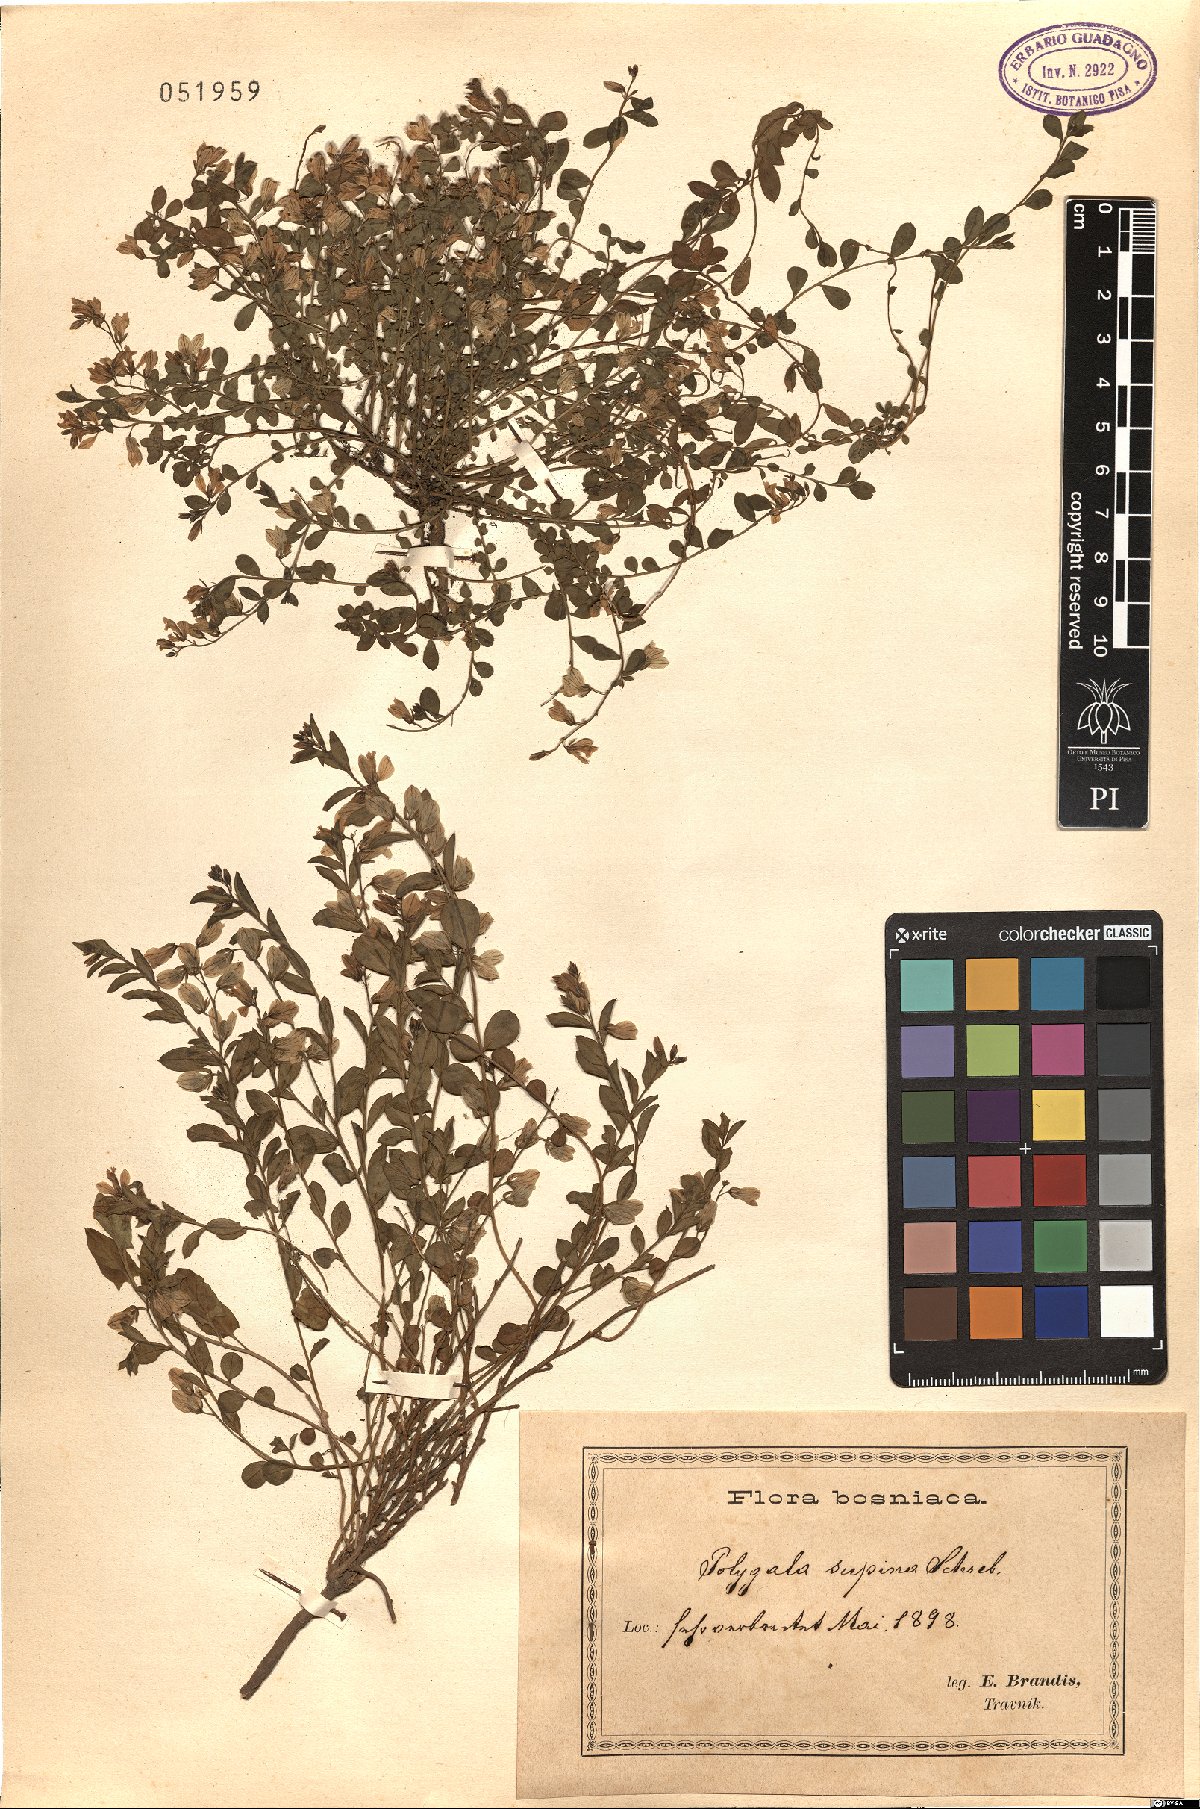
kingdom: Plantae
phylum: Tracheophyta
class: Magnoliopsida
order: Fabales
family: Polygalaceae
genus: Polygala
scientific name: Polygala supina
